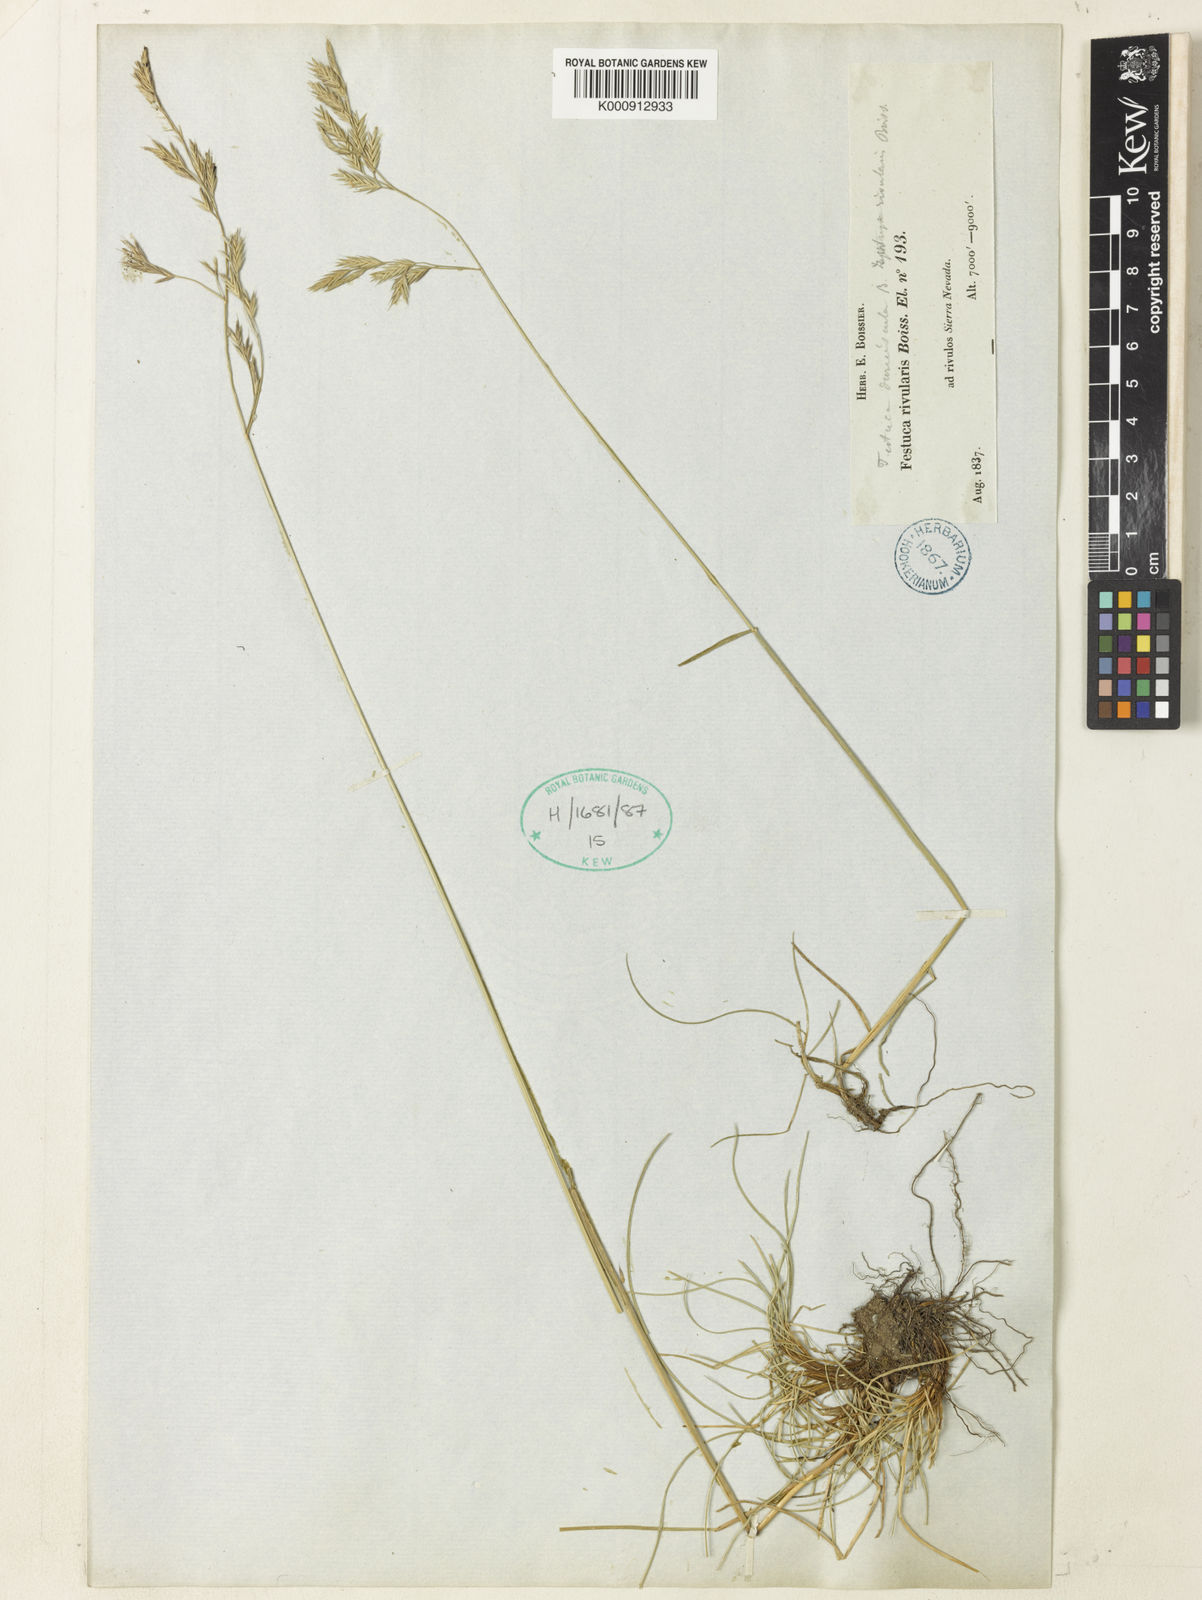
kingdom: Plantae
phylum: Tracheophyta
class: Liliopsida
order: Poales
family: Poaceae
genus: Festuca
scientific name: Festuca rivularis
